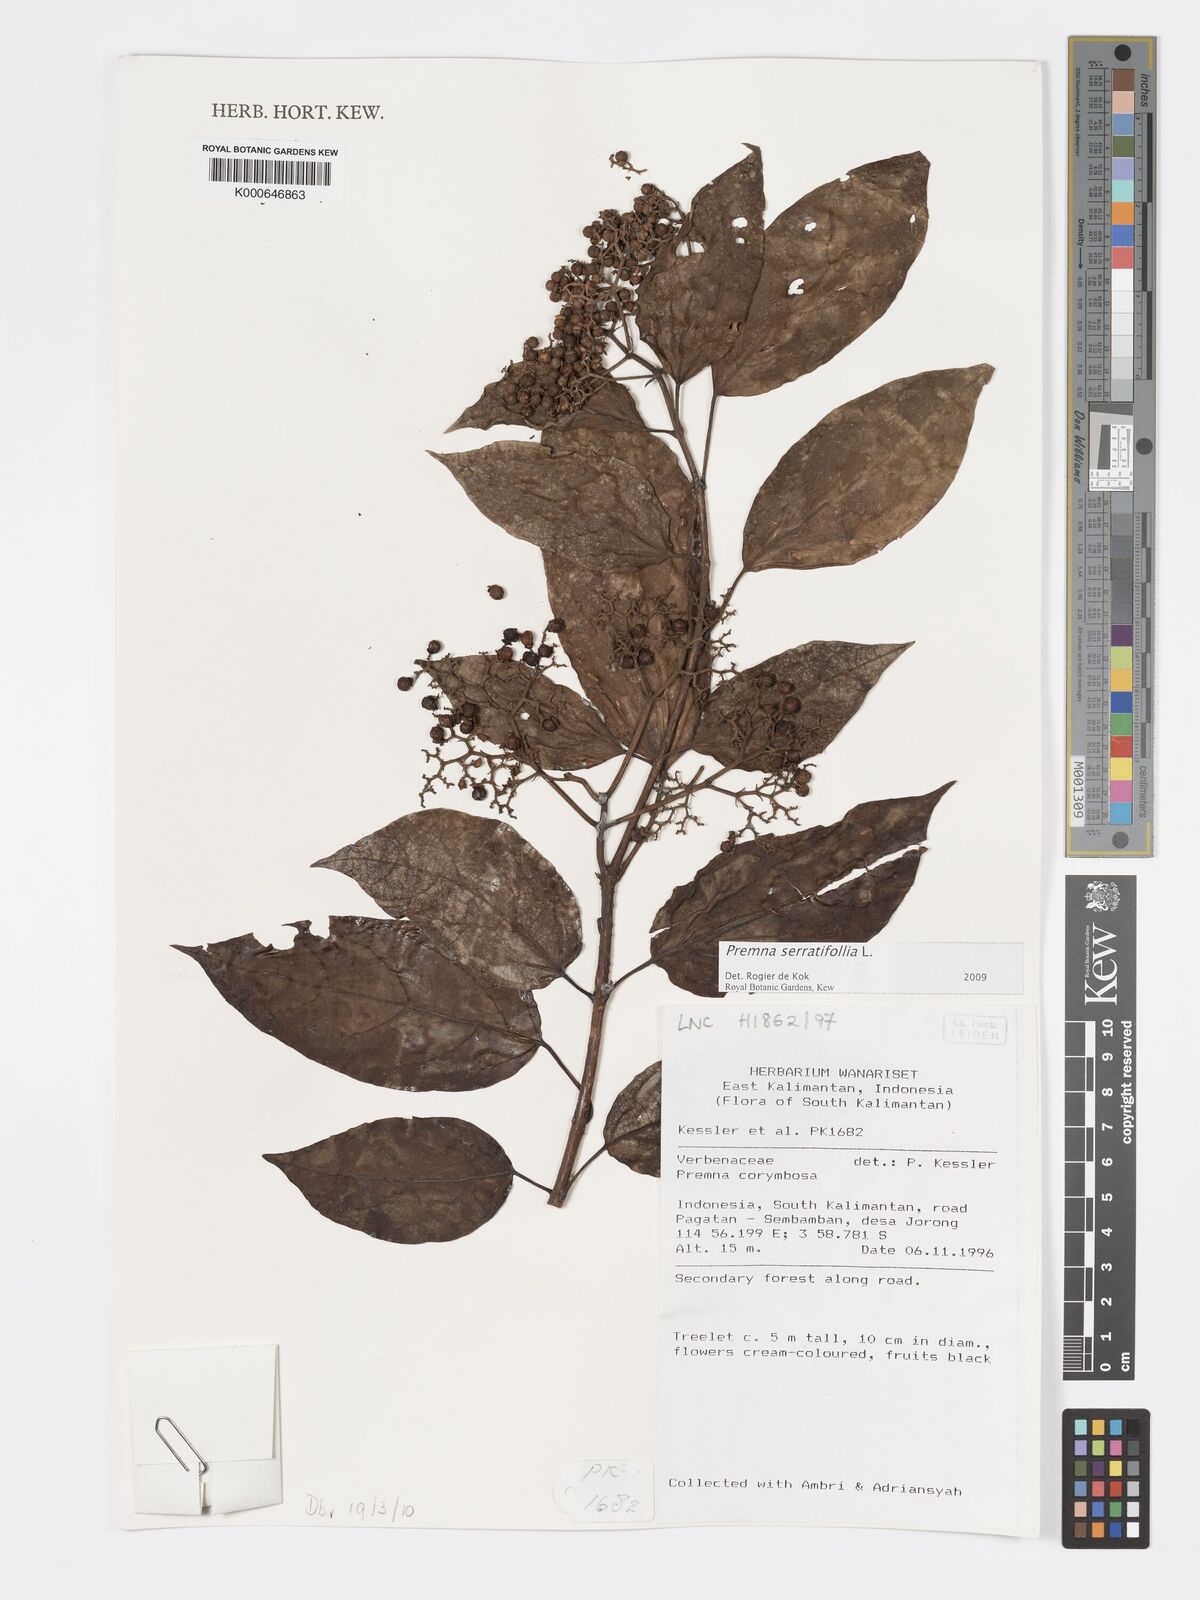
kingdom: Plantae
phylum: Tracheophyta
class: Magnoliopsida
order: Lamiales
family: Lamiaceae
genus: Premna
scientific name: Premna serratifolia
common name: Bastard guelder
